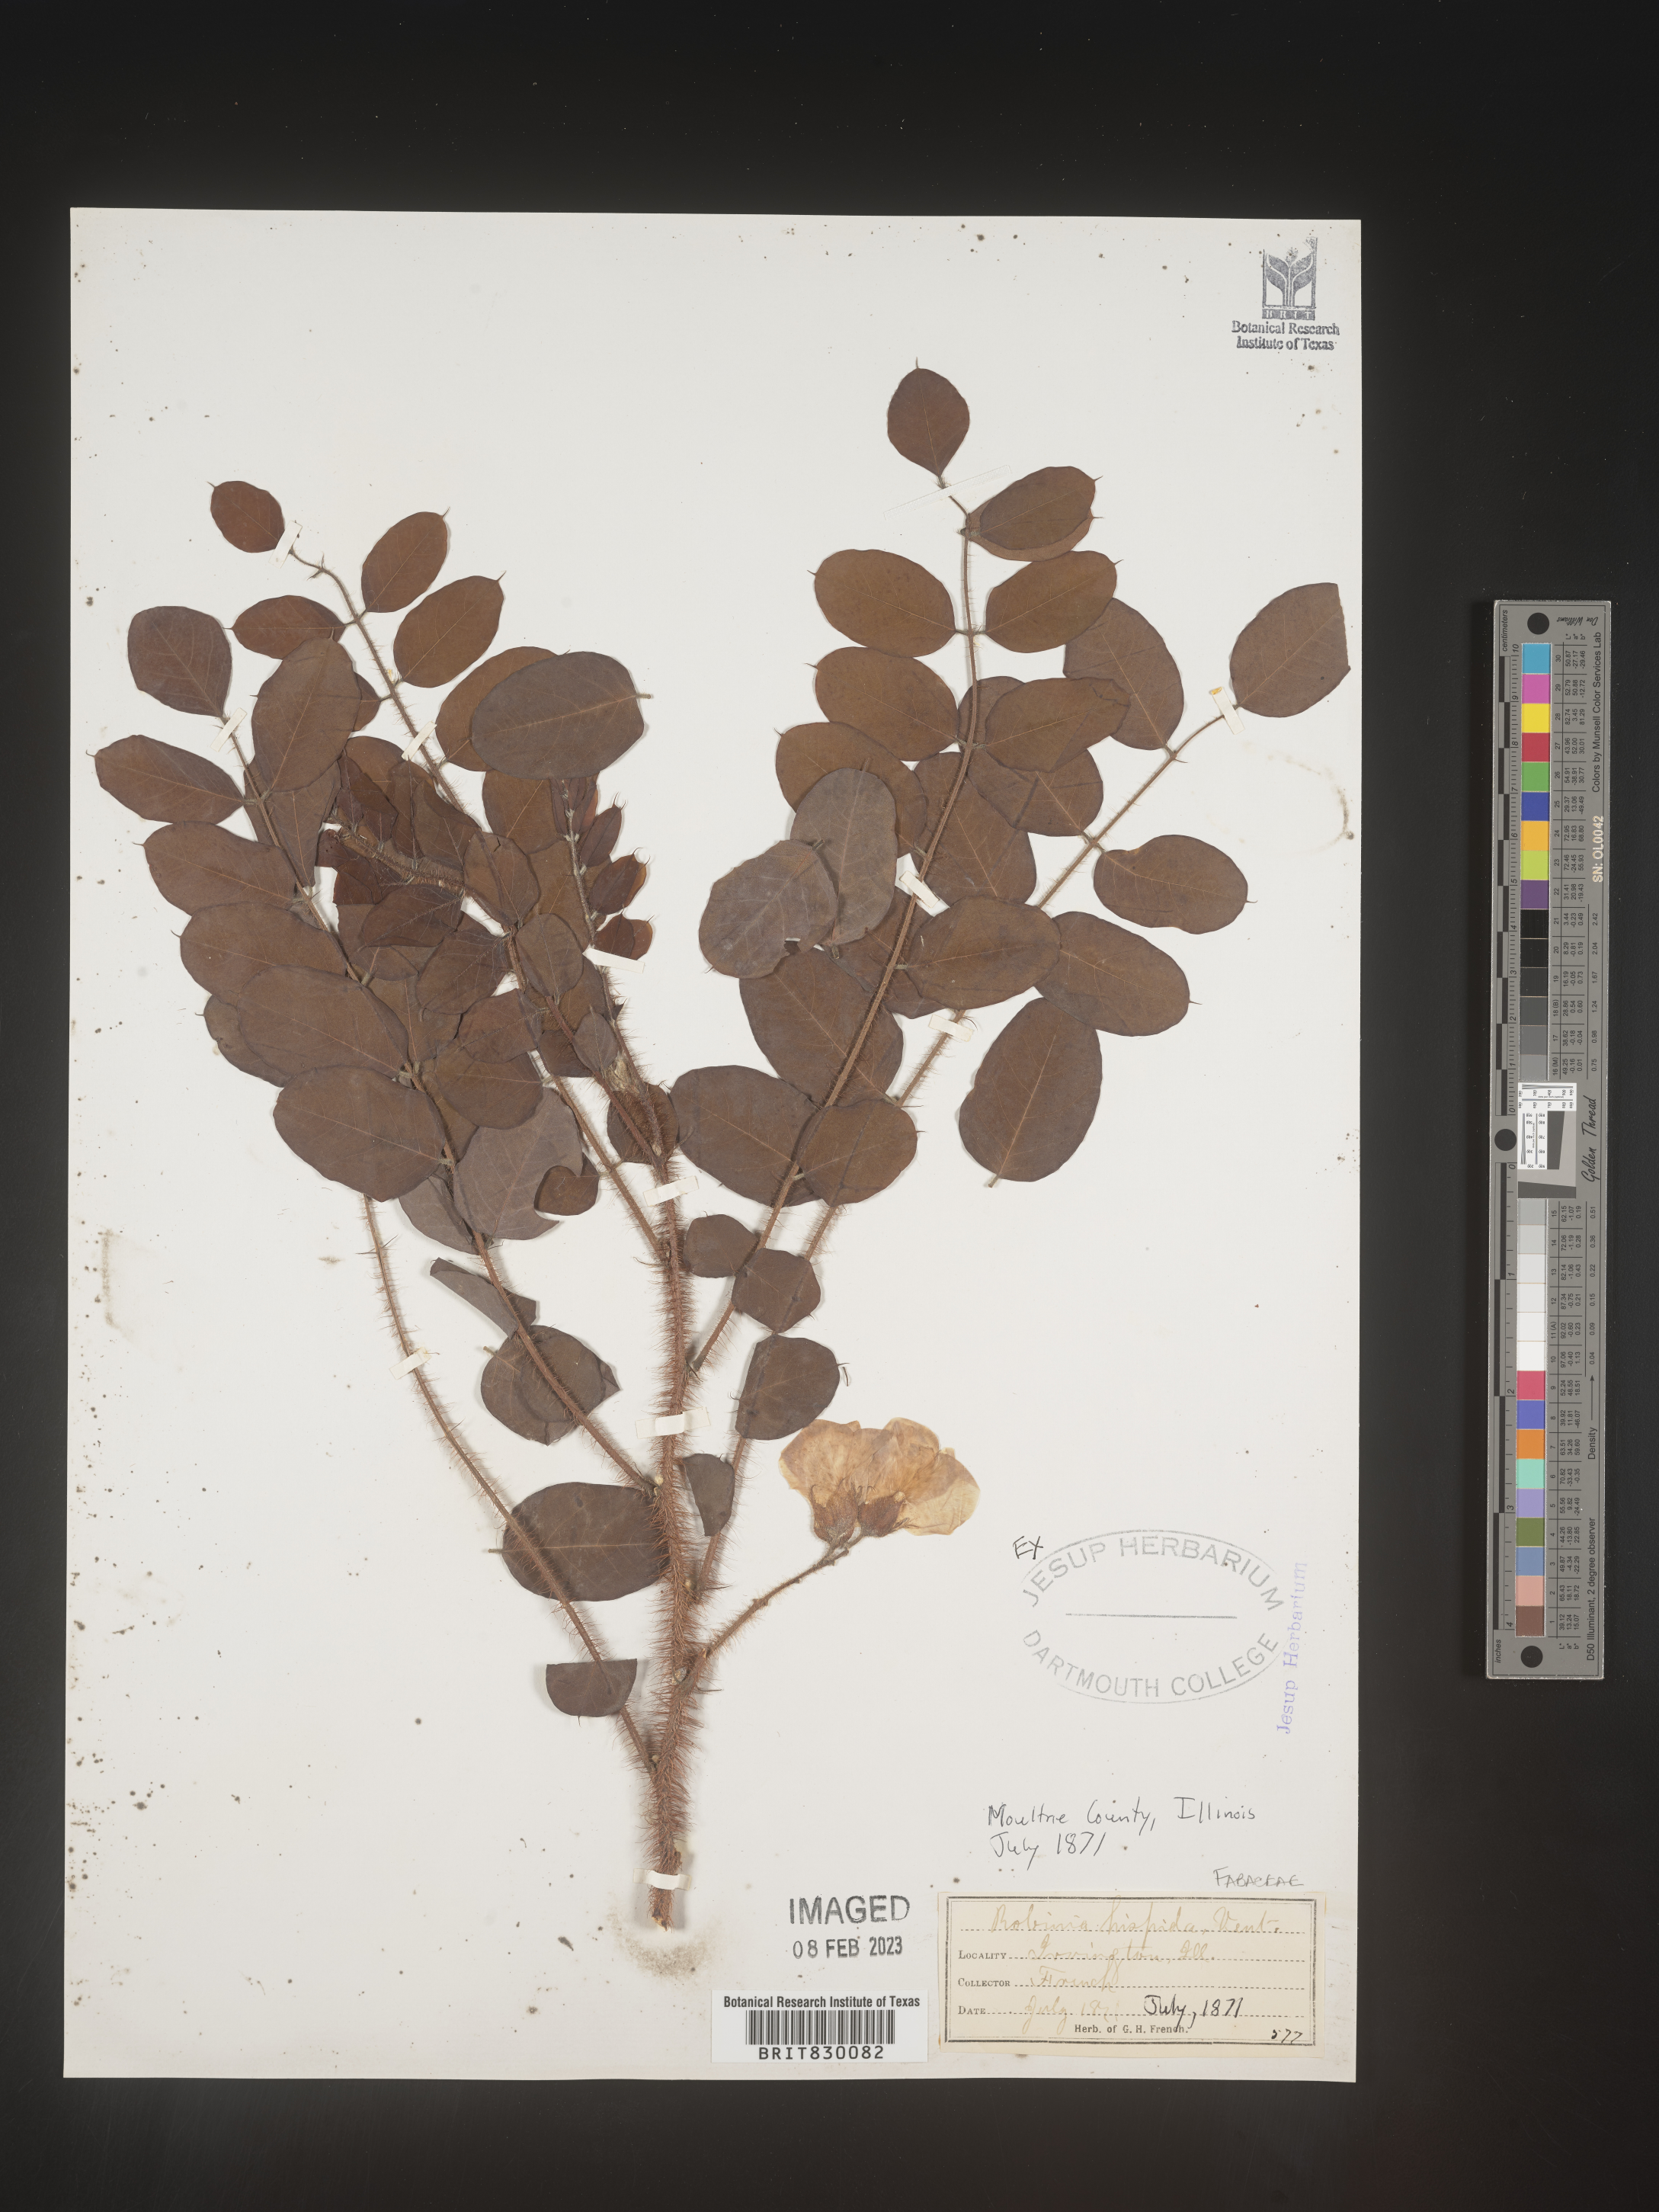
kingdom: Plantae
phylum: Tracheophyta
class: Magnoliopsida
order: Fabales
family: Fabaceae
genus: Robinia
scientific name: Robinia hispida
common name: Bristly locust
